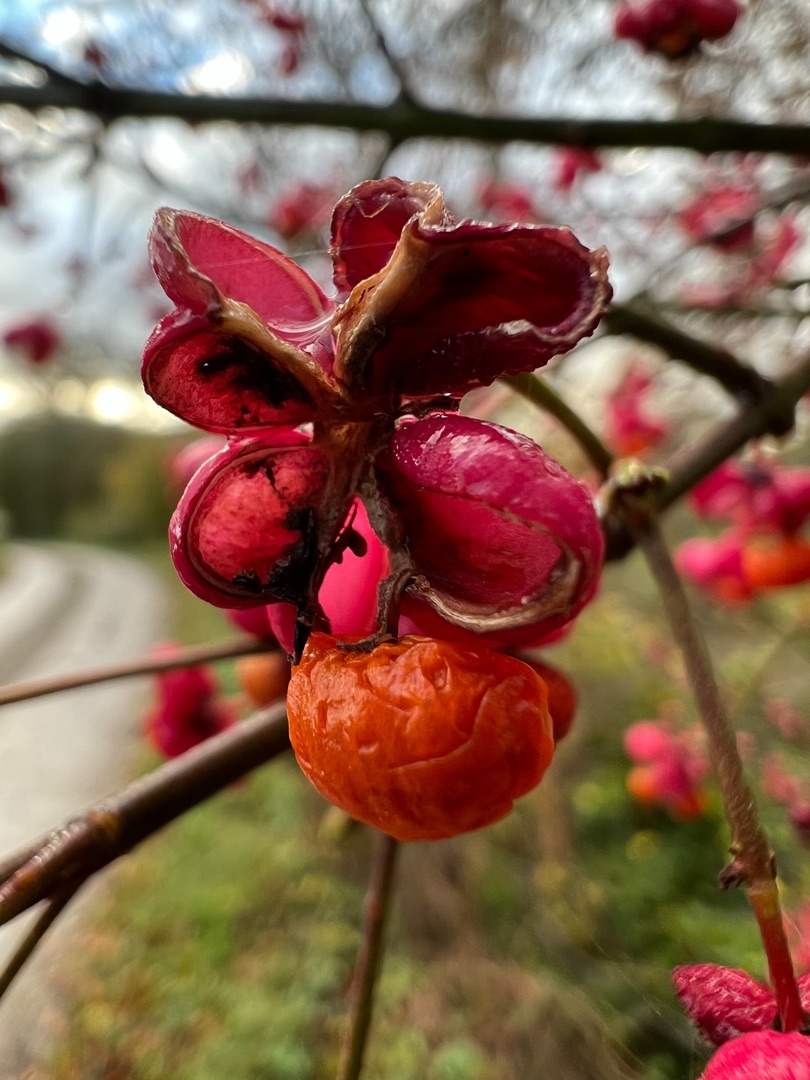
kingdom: Plantae
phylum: Tracheophyta
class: Magnoliopsida
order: Celastrales
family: Celastraceae
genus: Euonymus
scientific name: Euonymus europaeus
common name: Benved
